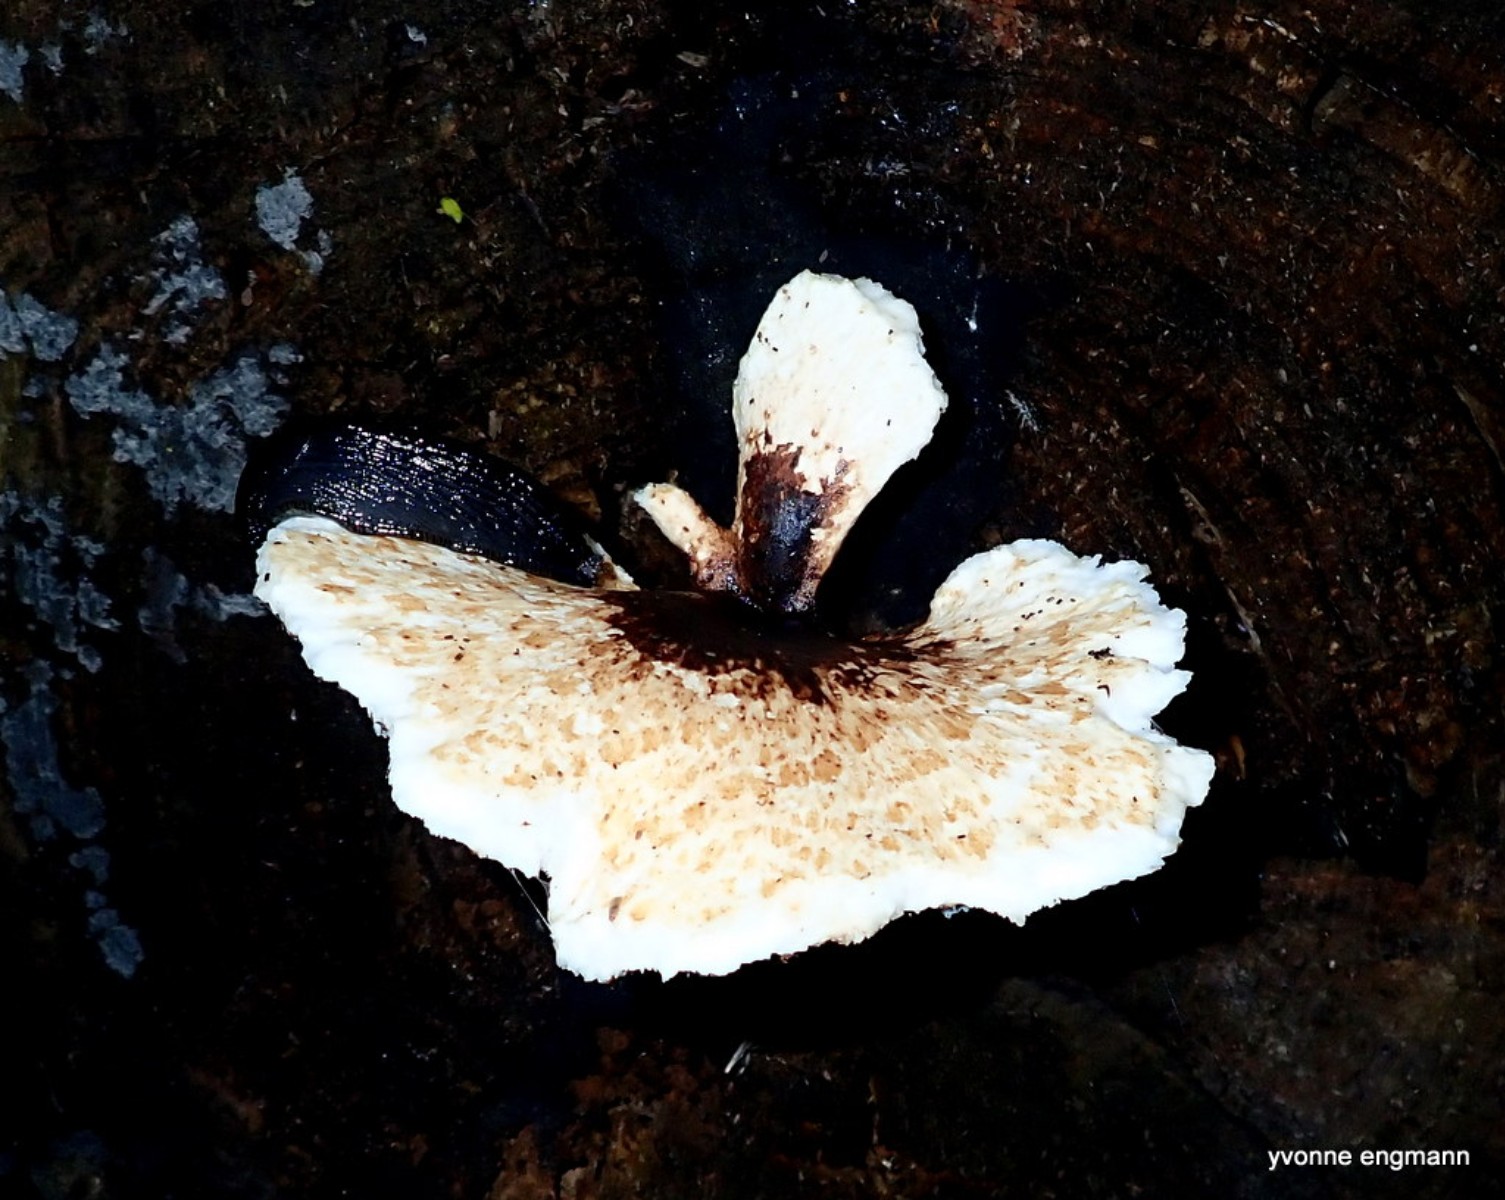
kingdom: Fungi
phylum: Basidiomycota
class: Agaricomycetes
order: Polyporales
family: Polyporaceae
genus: Cerioporus
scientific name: Cerioporus squamosus
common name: skællet stilkporesvamp
